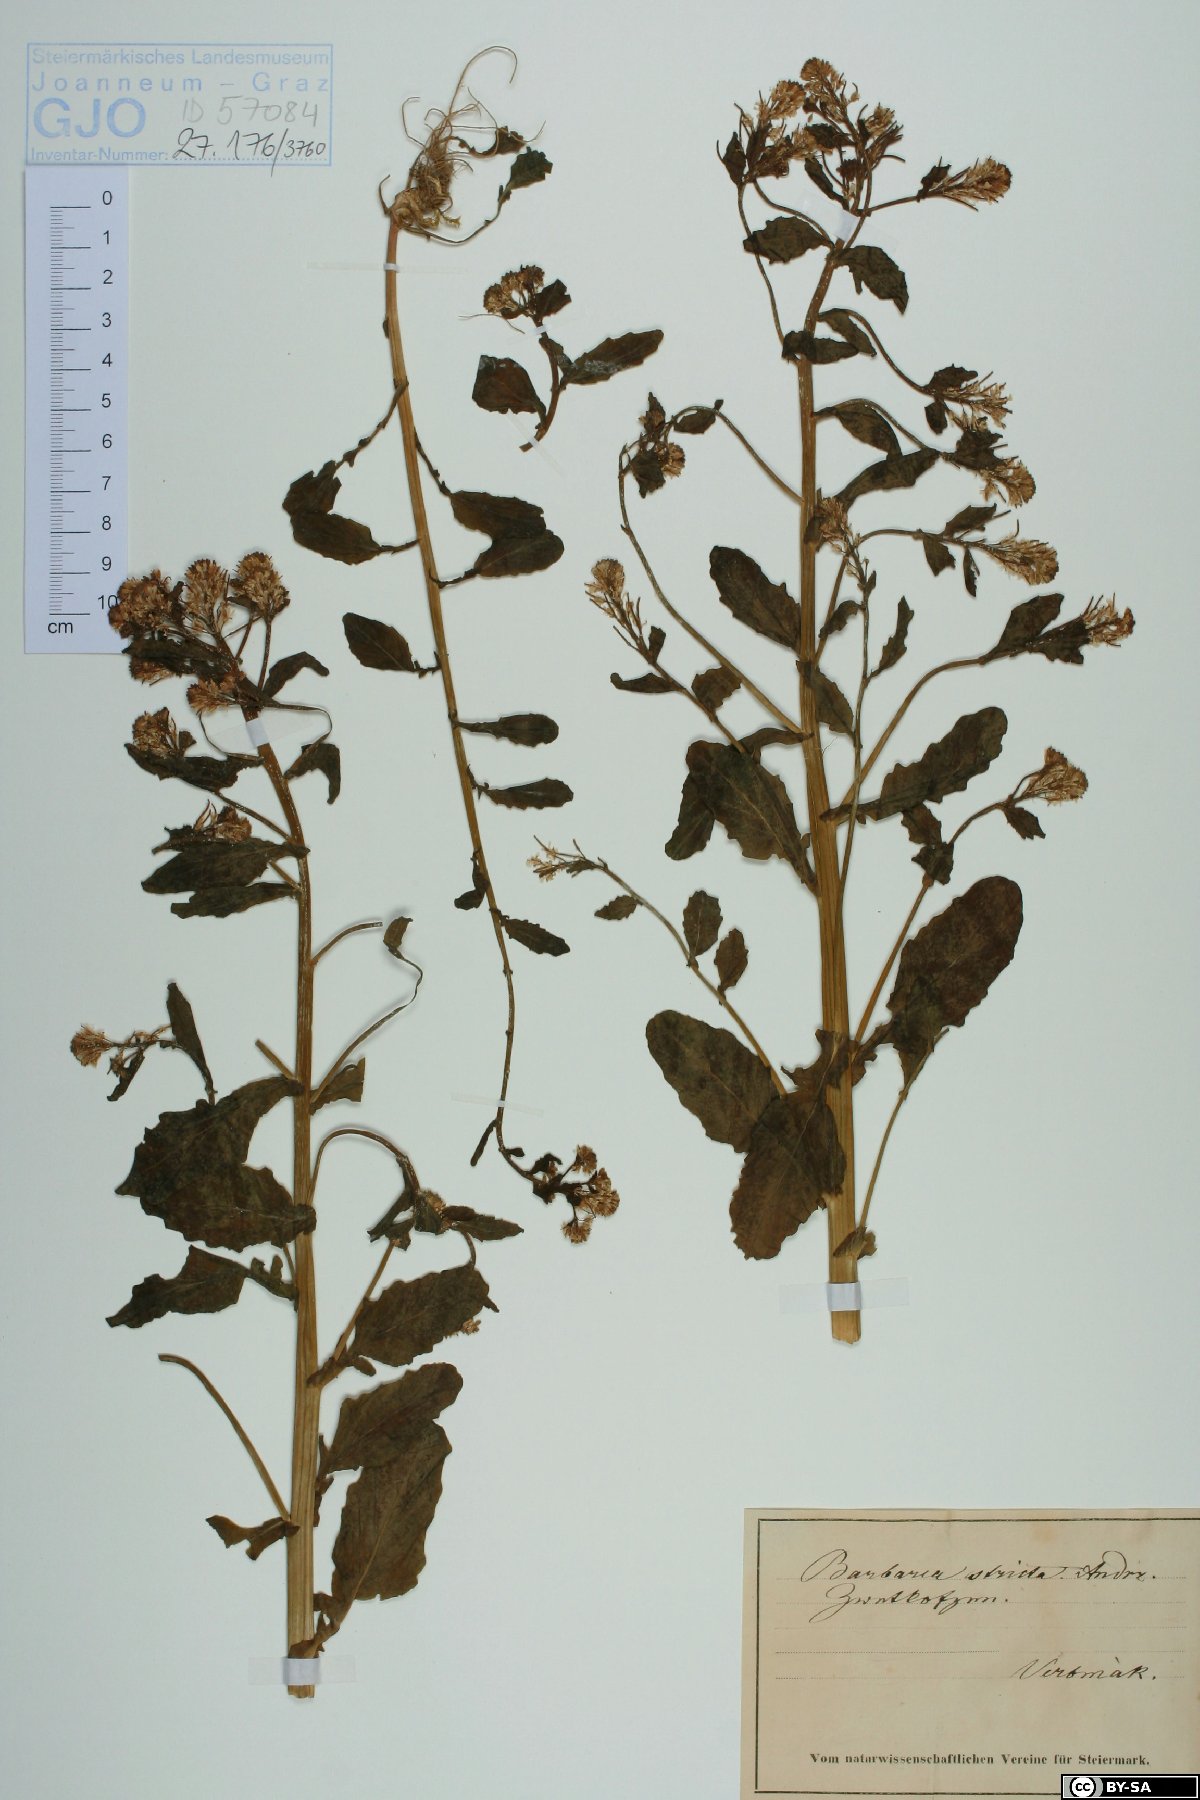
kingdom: Plantae
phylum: Tracheophyta
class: Magnoliopsida
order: Brassicales
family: Brassicaceae
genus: Barbarea
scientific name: Barbarea stricta
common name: Small-flowered winter-cress
